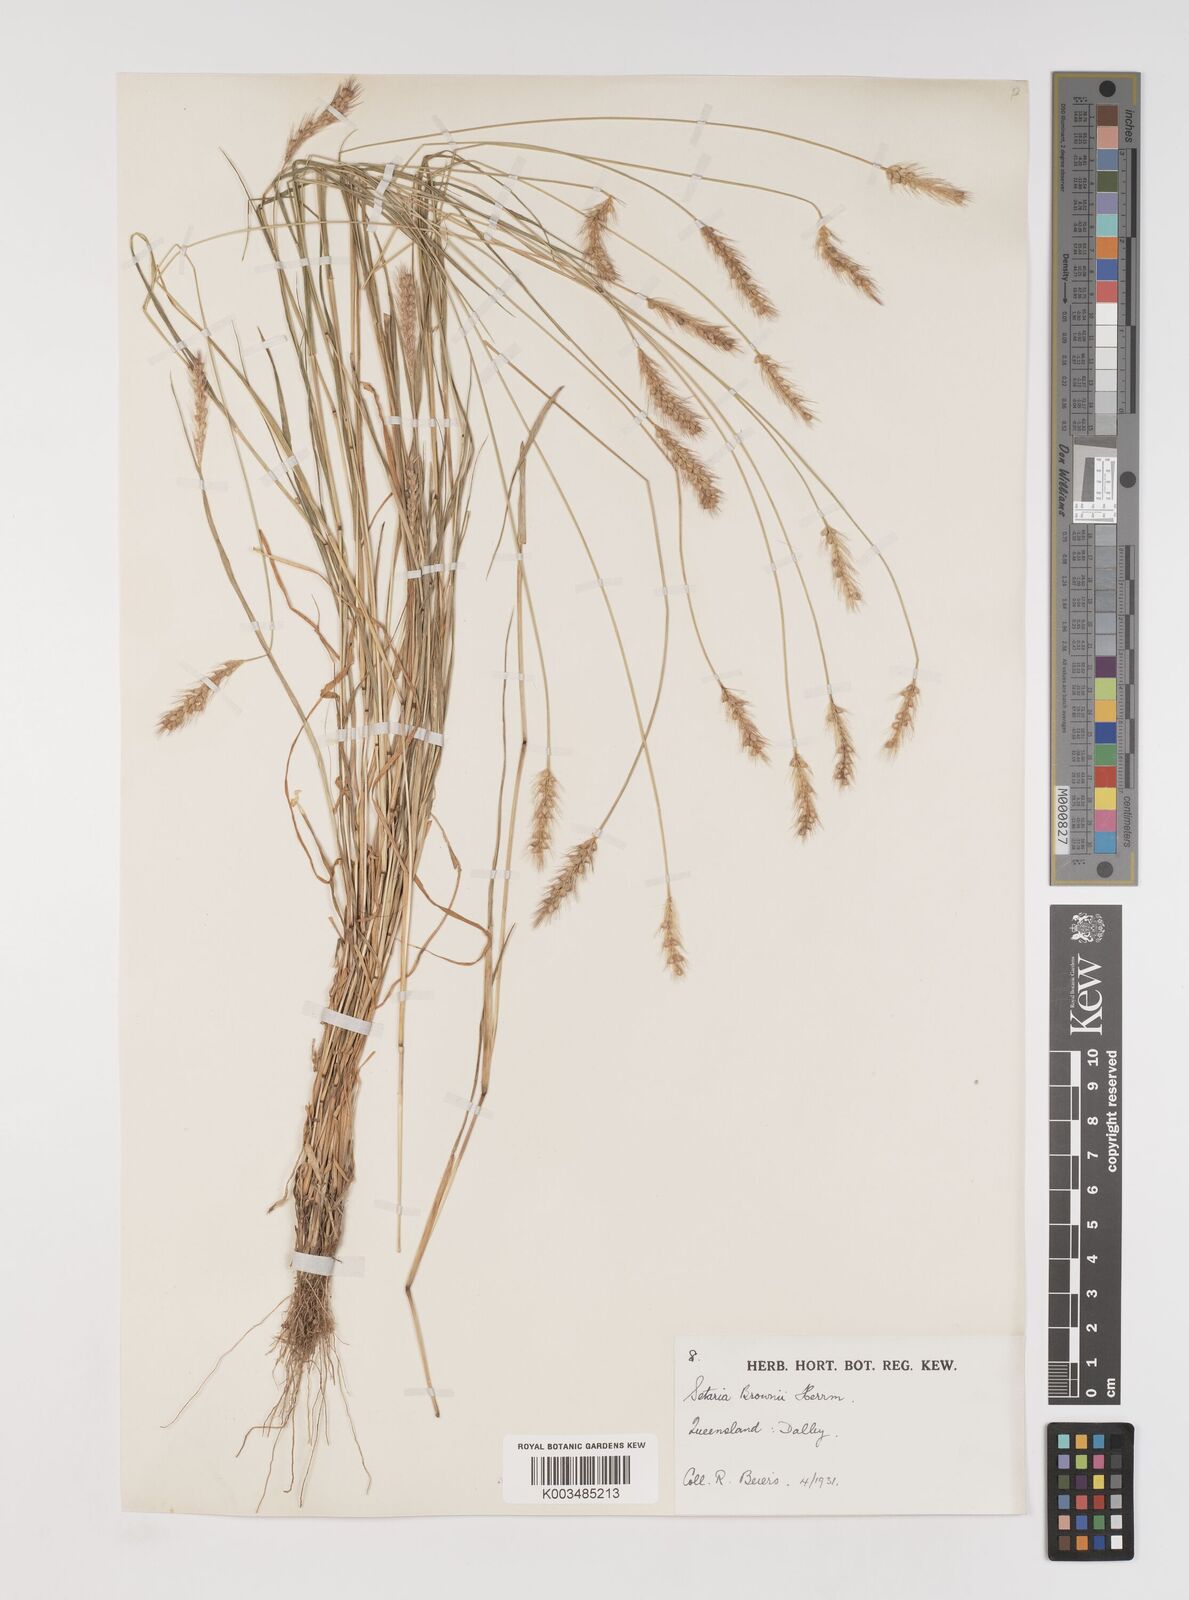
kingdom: Plantae
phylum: Tracheophyta
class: Liliopsida
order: Poales
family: Poaceae
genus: Setaria
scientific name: Setaria surgens
